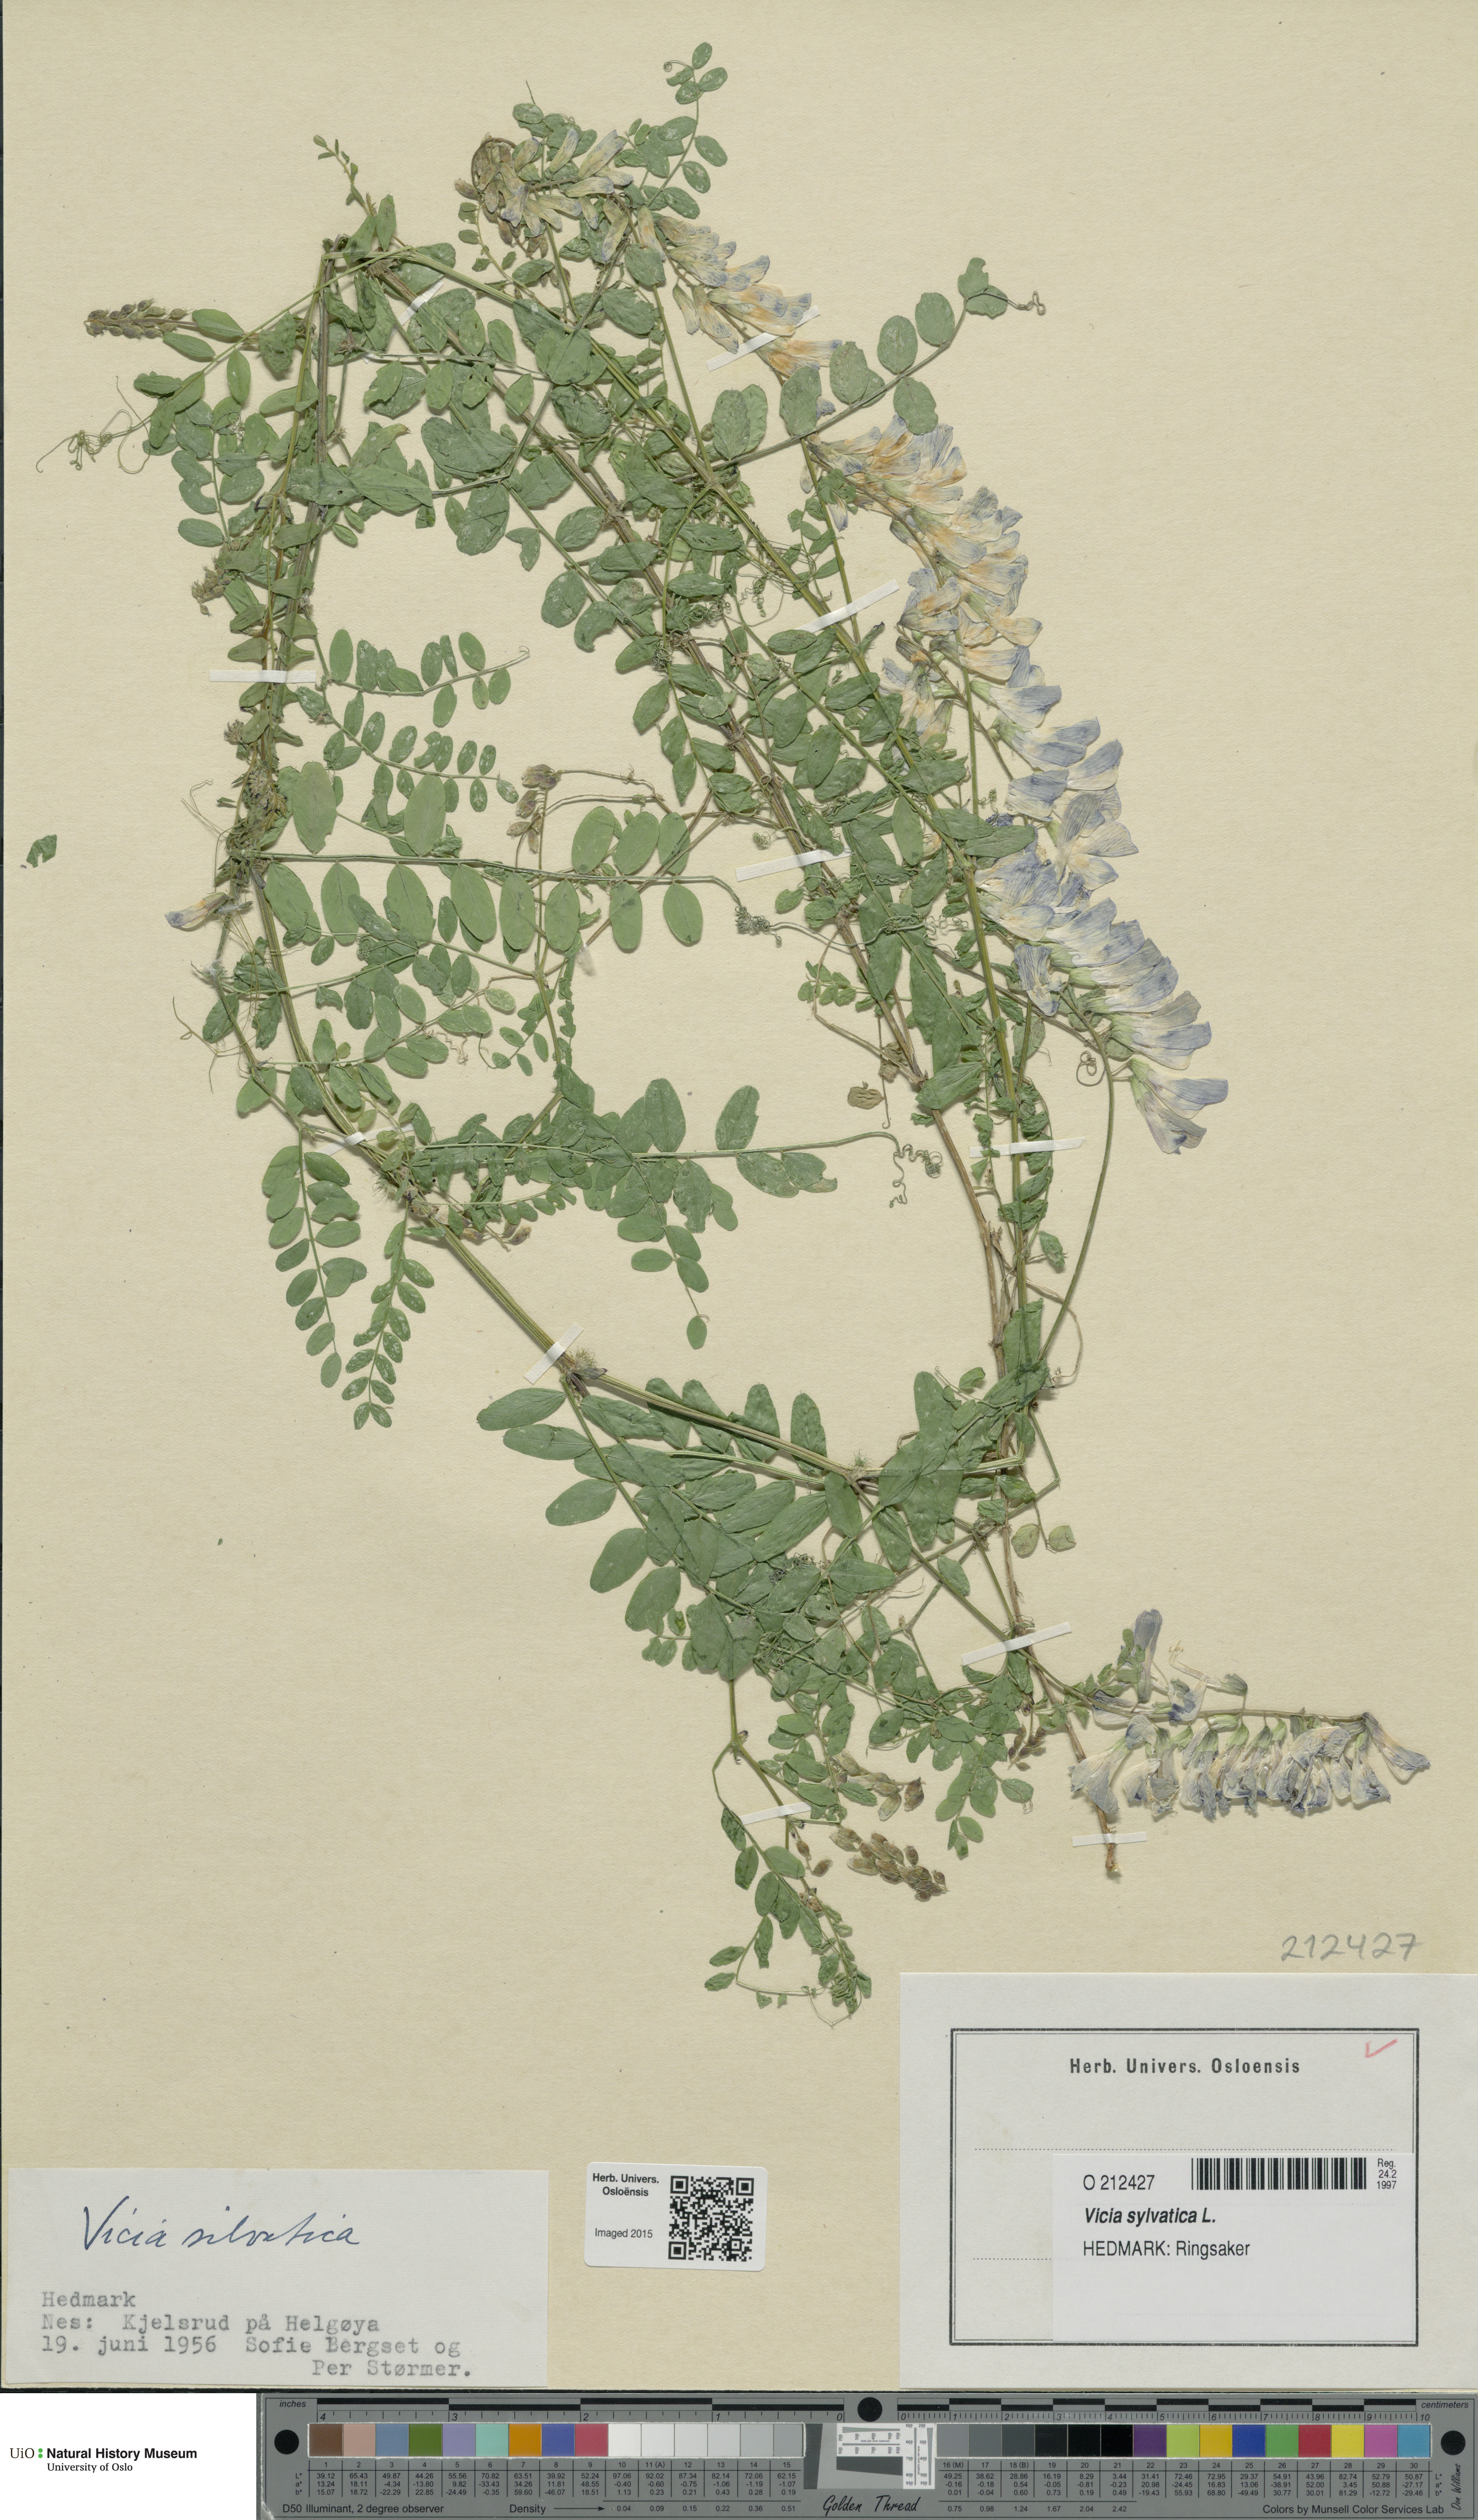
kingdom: Plantae
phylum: Tracheophyta
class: Magnoliopsida
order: Fabales
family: Fabaceae
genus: Vicia
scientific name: Vicia sylvatica
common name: Wood vetch
